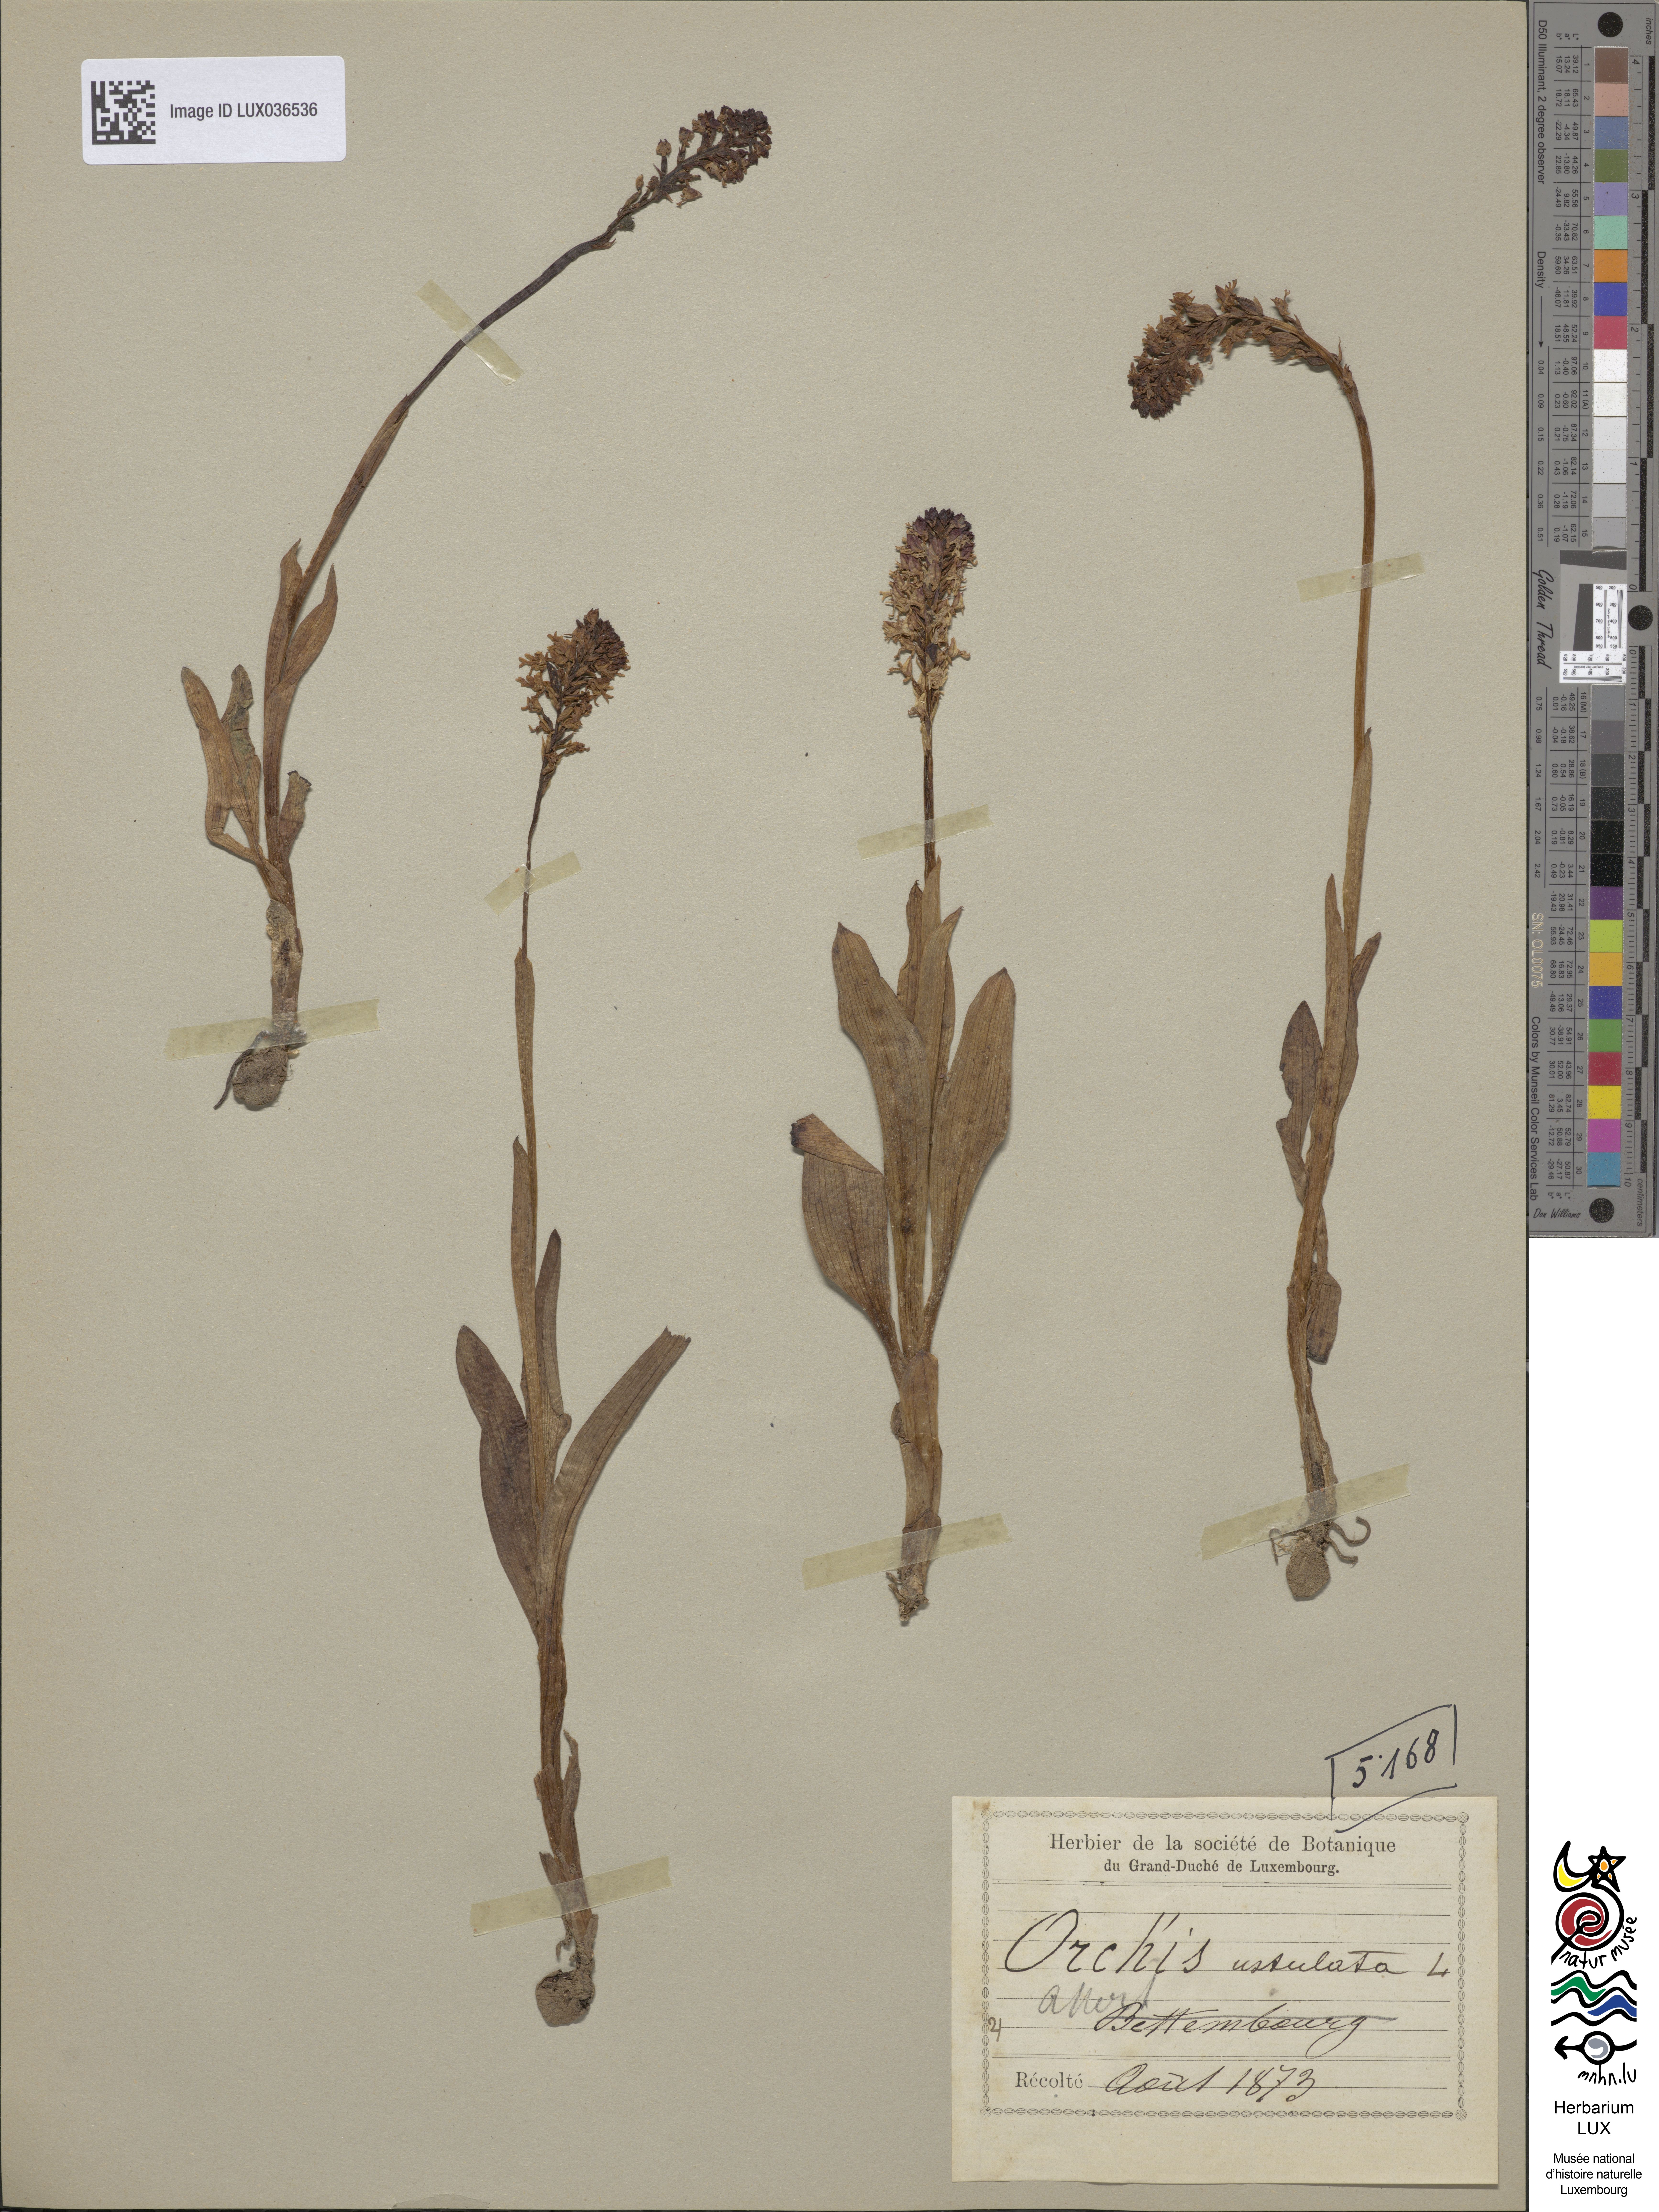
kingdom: Plantae
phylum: Tracheophyta
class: Liliopsida
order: Asparagales
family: Orchidaceae
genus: Neotinea
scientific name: Neotinea ustulata
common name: Burnt orchid
